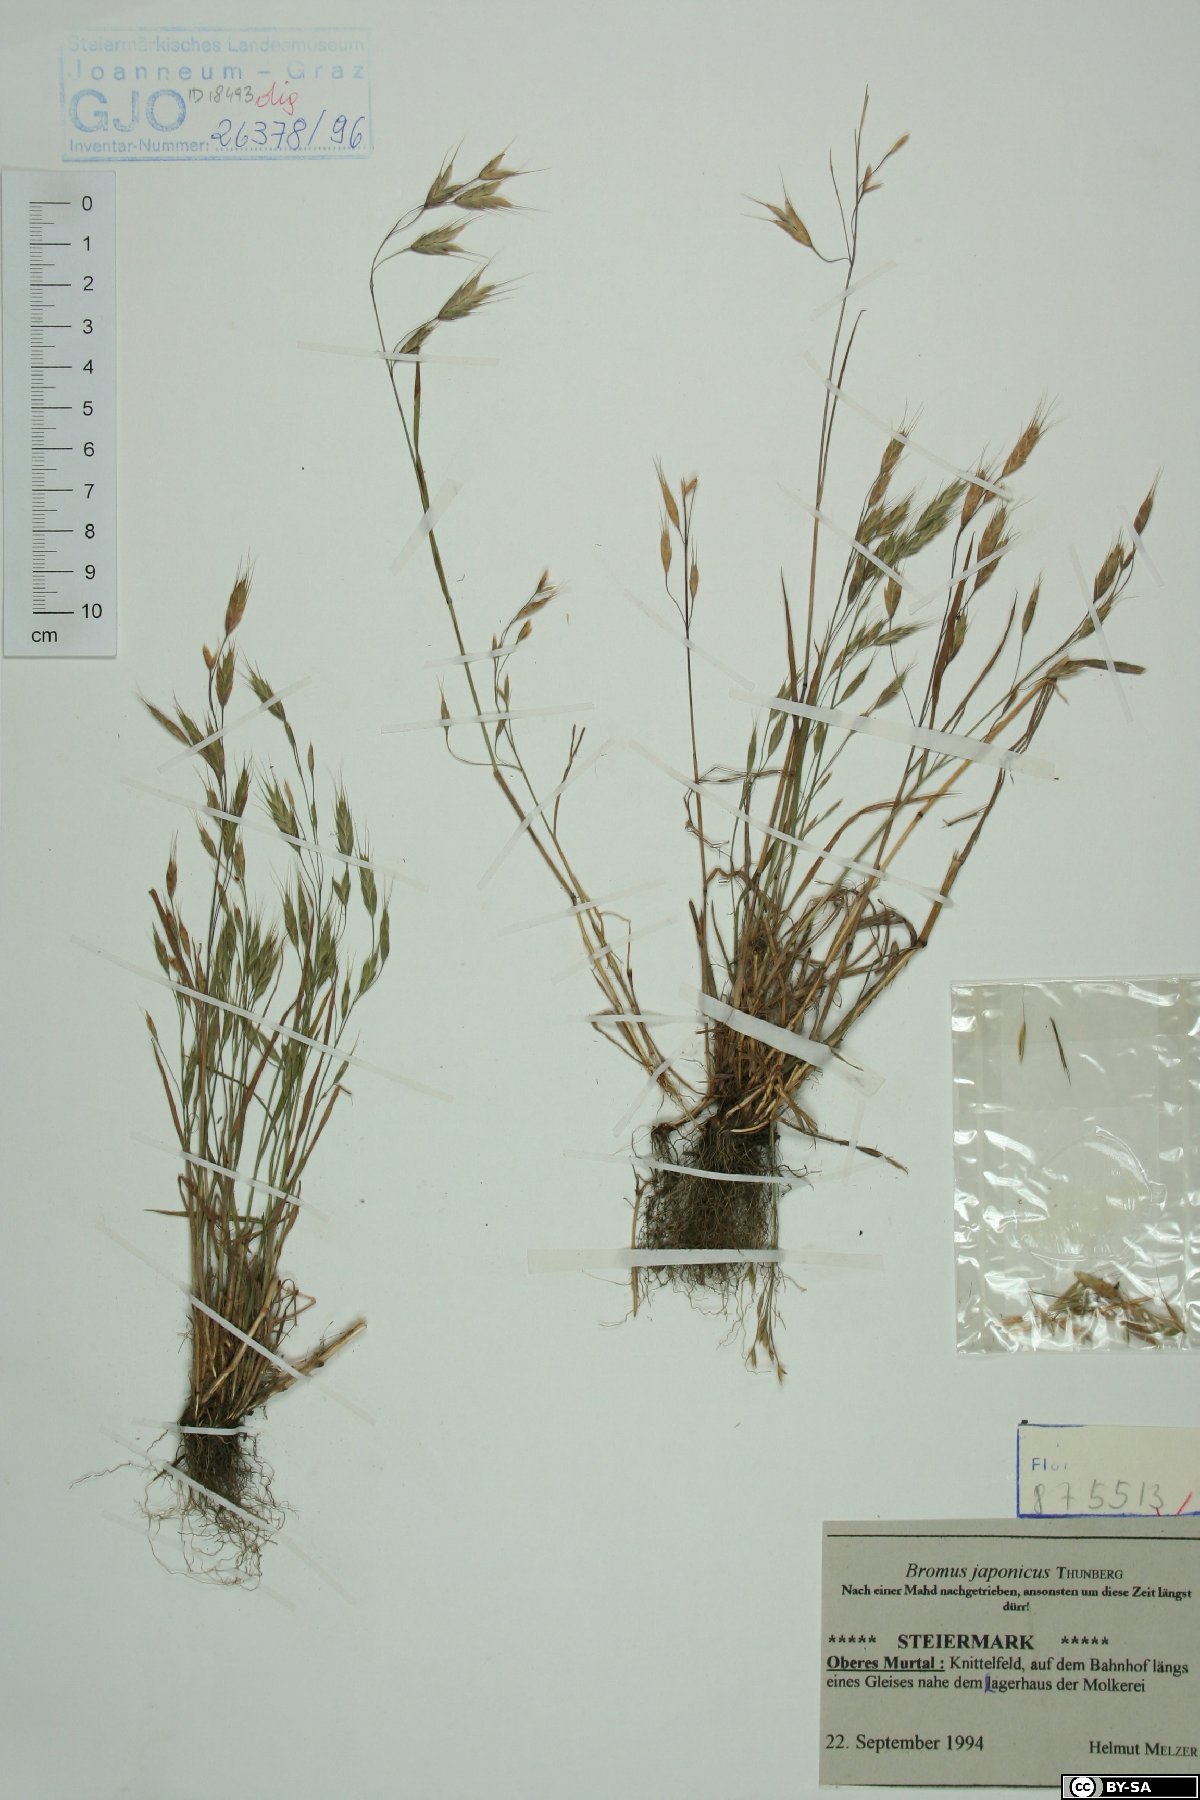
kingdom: Plantae
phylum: Tracheophyta
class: Liliopsida
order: Poales
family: Poaceae
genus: Bromus
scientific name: Bromus japonicus
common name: Japanese brome
